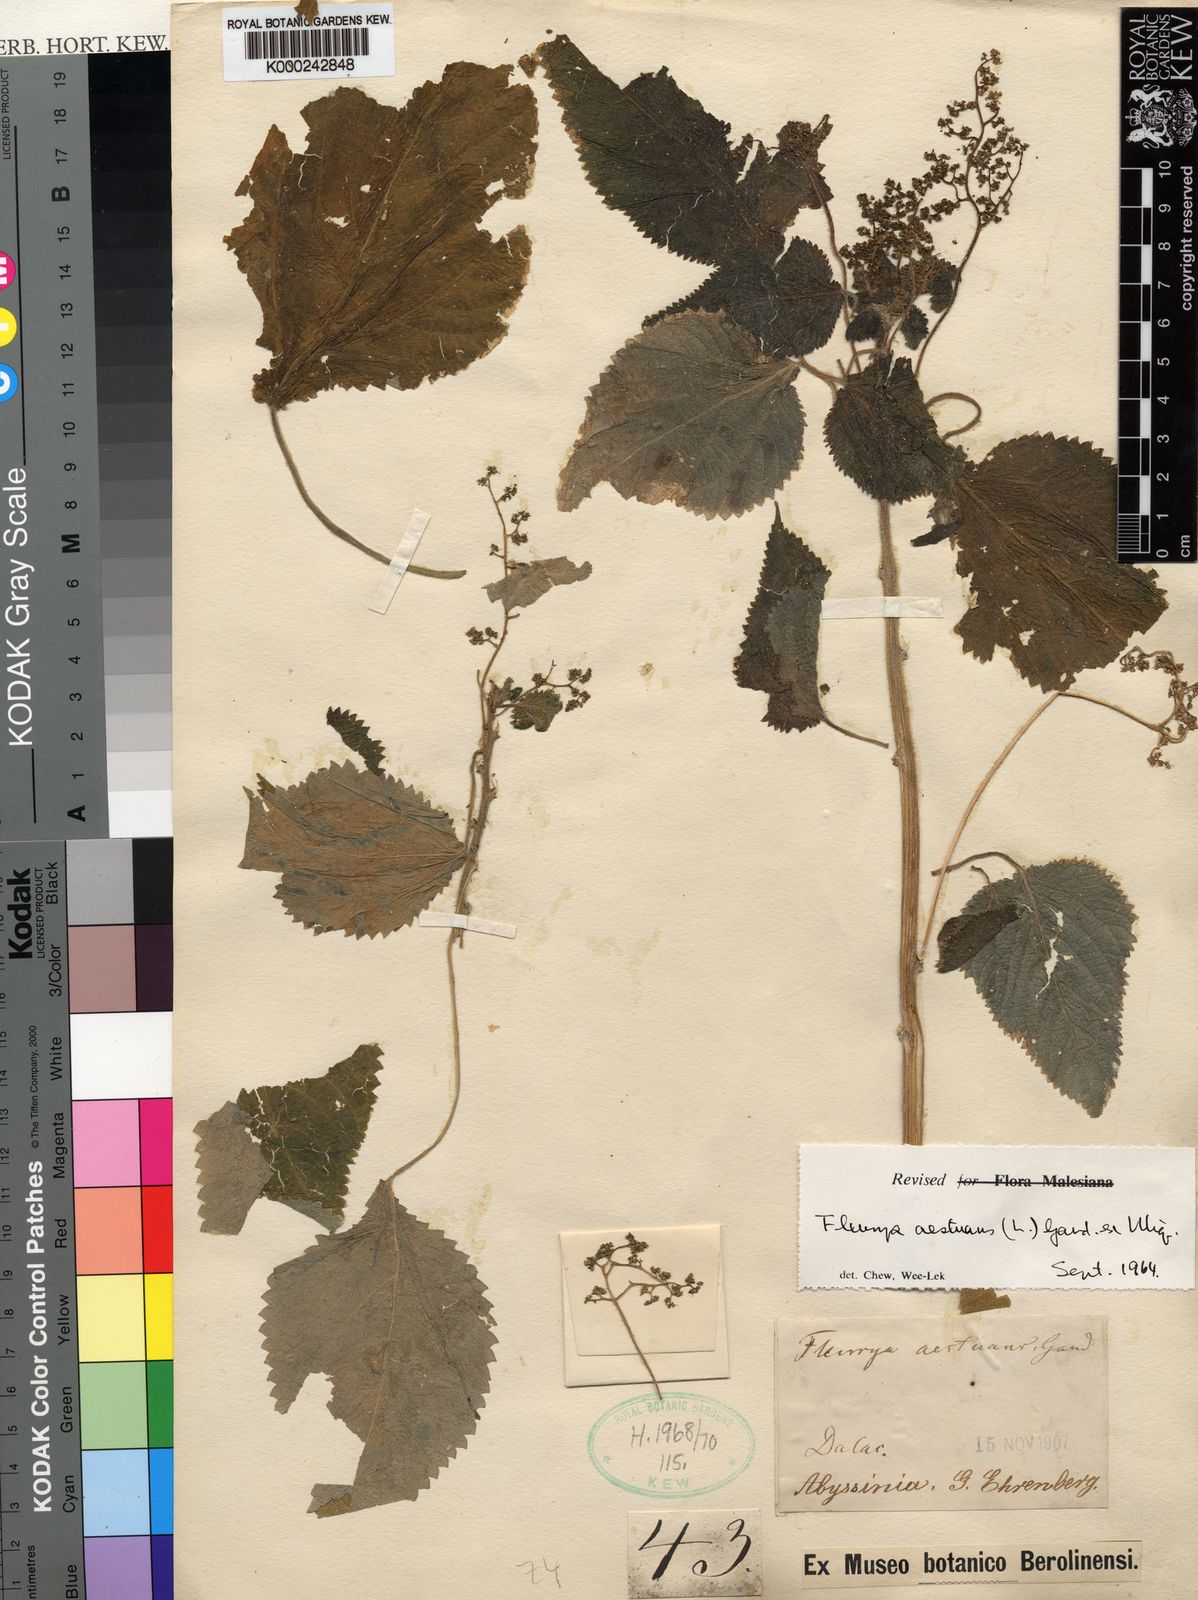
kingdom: Plantae
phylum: Tracheophyta
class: Magnoliopsida
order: Rosales
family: Urticaceae
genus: Laportea
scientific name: Laportea aestuans
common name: West indian woodnettle
